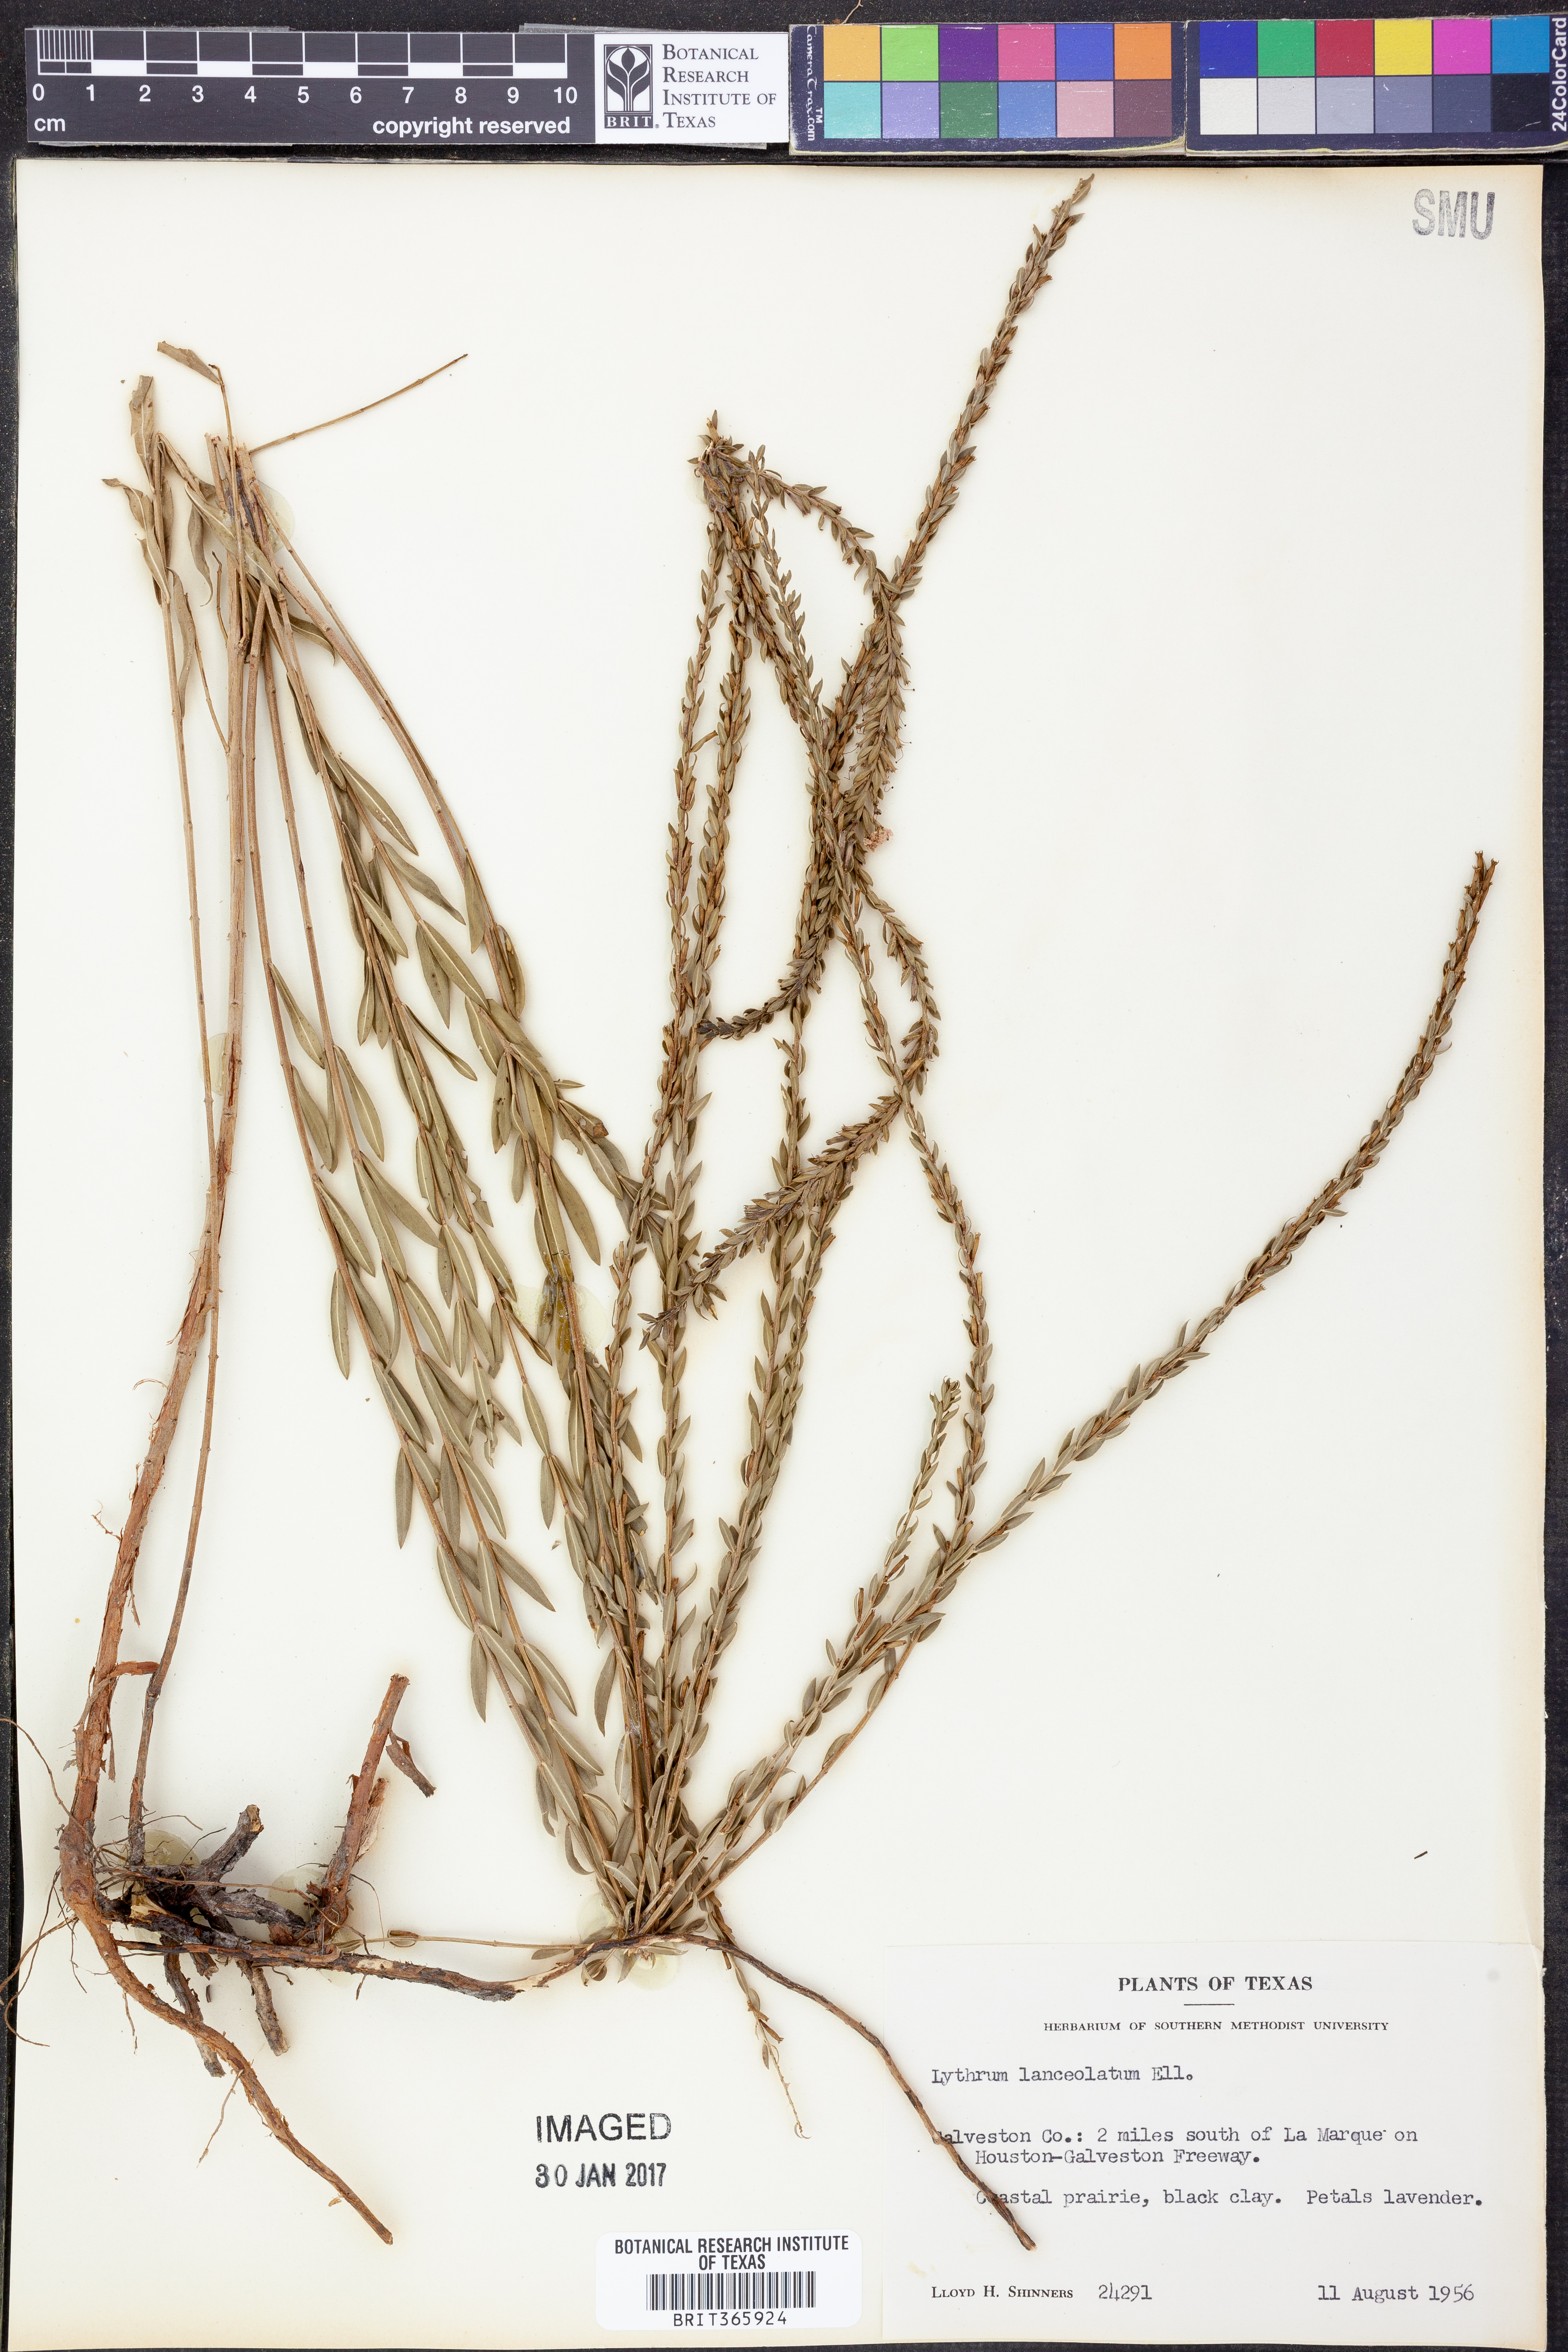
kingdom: Plantae
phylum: Tracheophyta
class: Magnoliopsida
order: Myrtales
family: Lythraceae
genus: Lythrum
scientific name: Lythrum alatum
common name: Winged loosestrife
